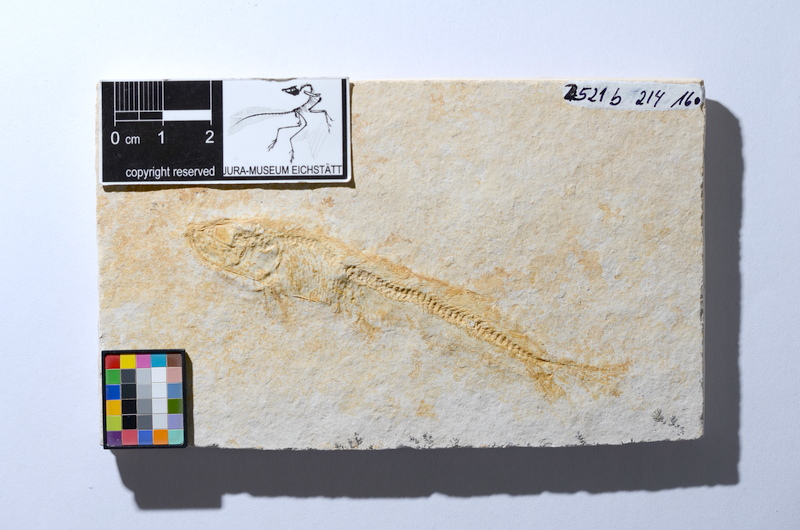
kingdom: Animalia
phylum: Chordata
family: Allothrissopidae
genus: Allothrissops
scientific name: Allothrissops mesogaster
